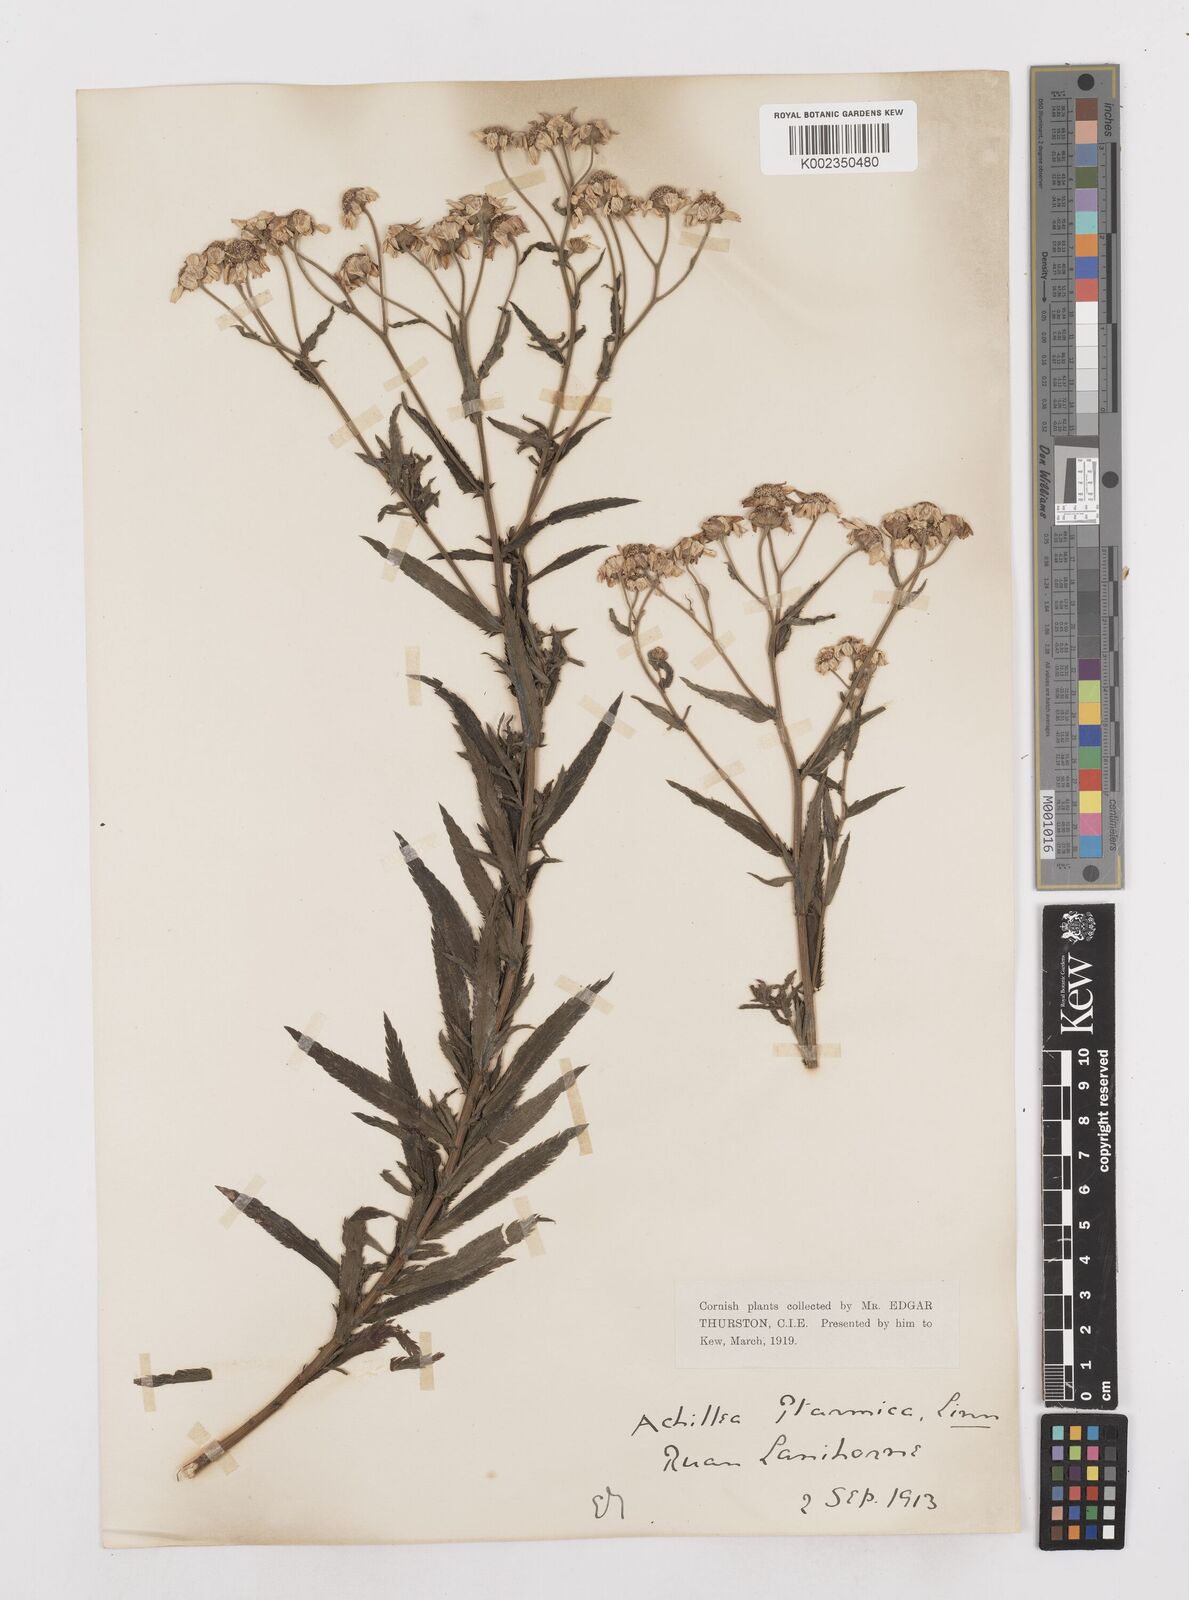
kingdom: Plantae
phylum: Tracheophyta
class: Magnoliopsida
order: Asterales
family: Asteraceae
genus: Achillea
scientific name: Achillea ptarmica
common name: Sneezeweed
